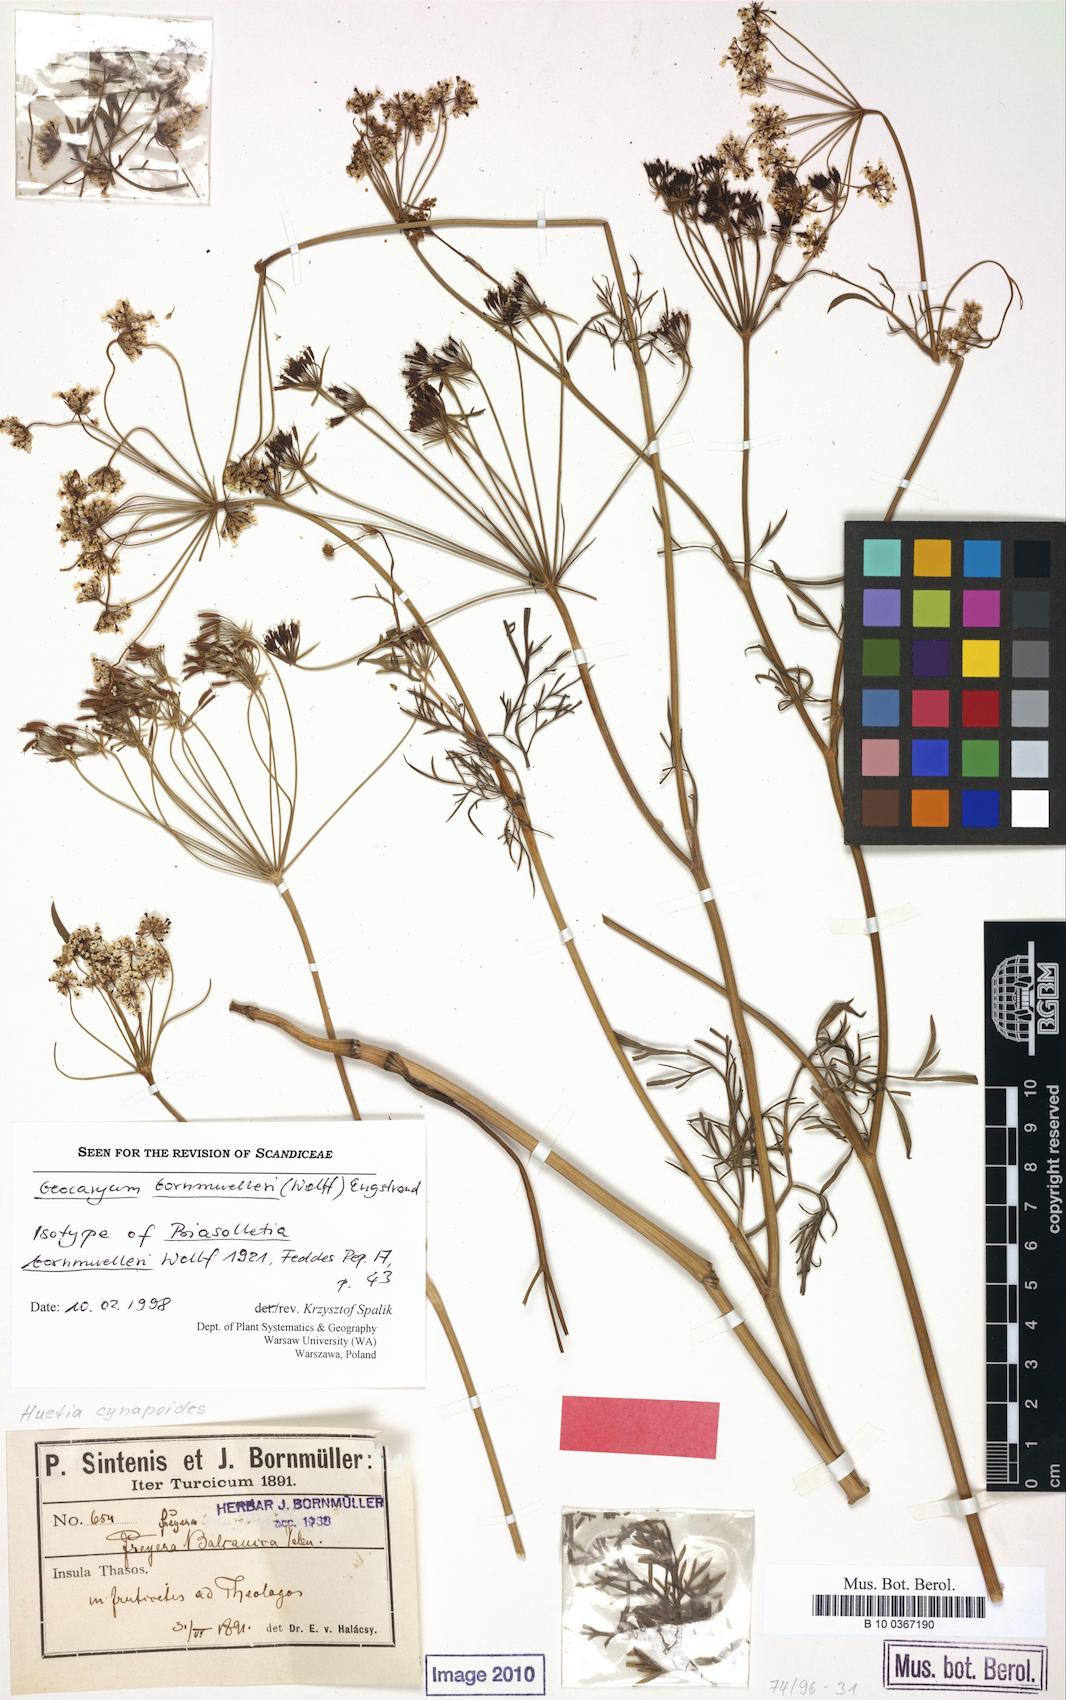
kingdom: Plantae
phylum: Tracheophyta
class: Magnoliopsida
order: Apiales
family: Apiaceae
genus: Geocaryum
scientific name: Geocaryum bornmuelleri
